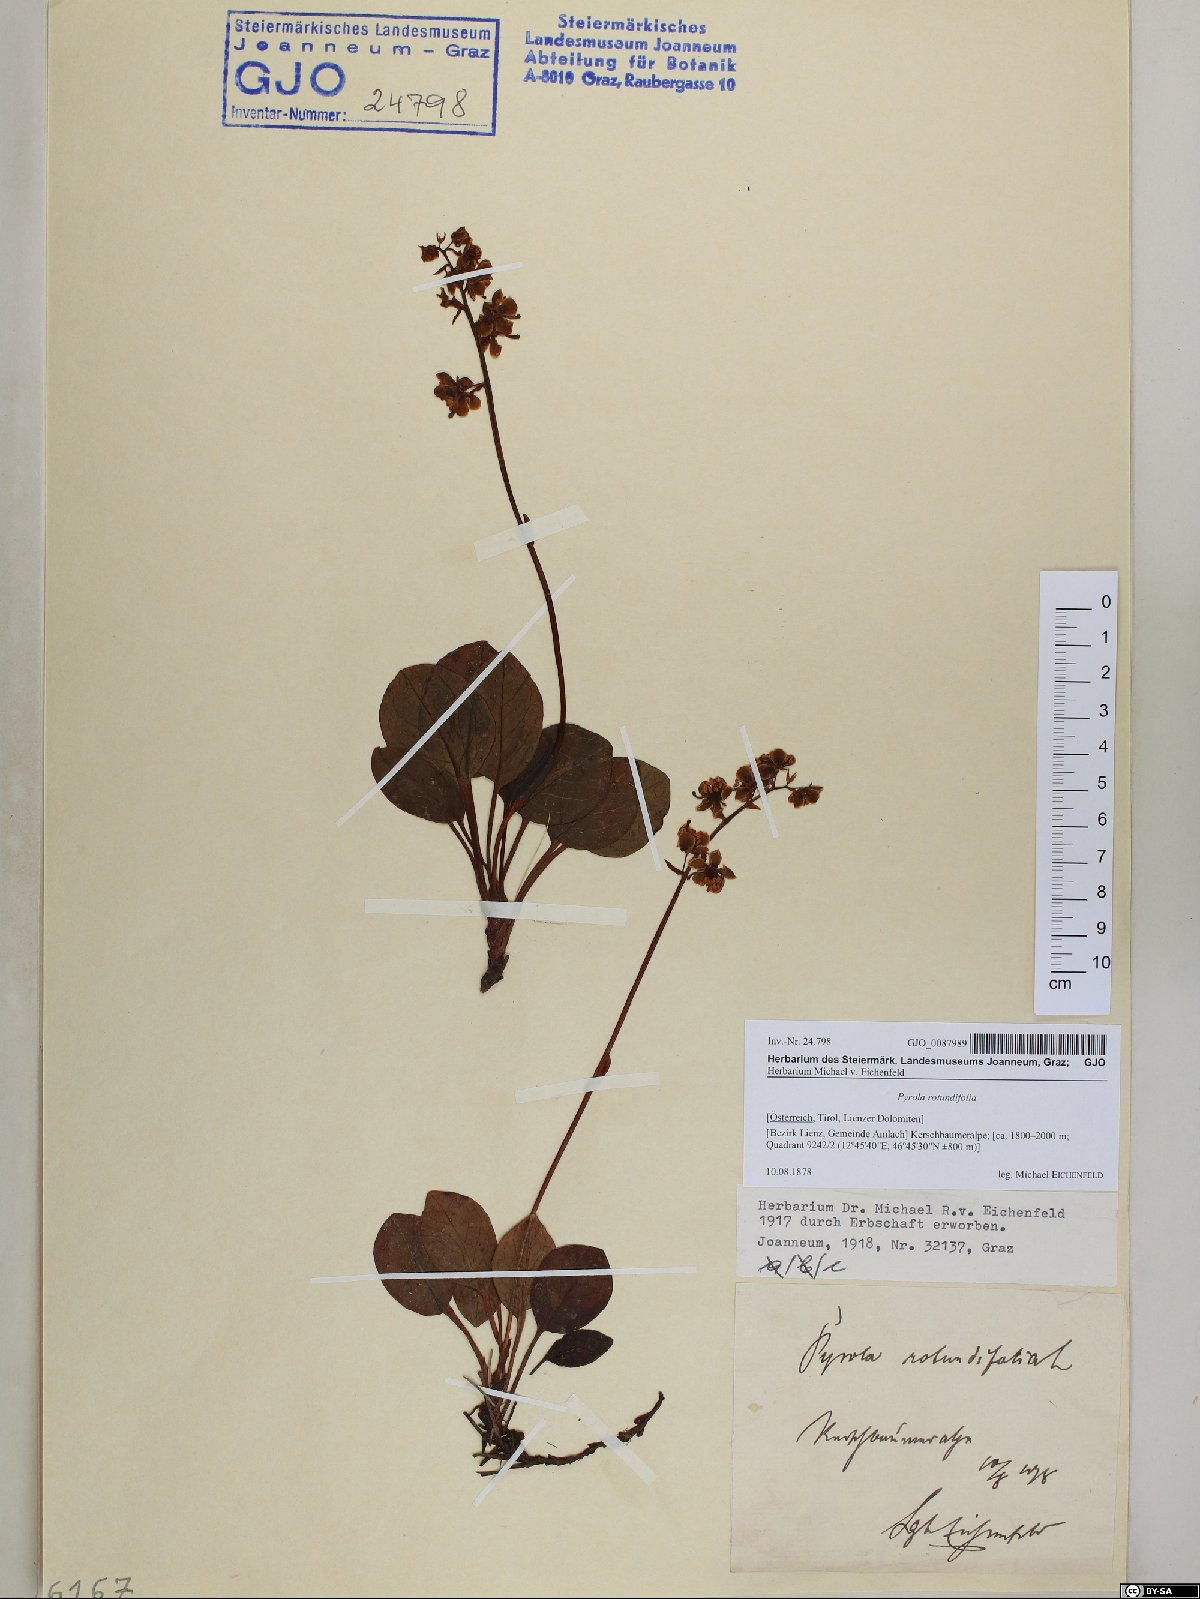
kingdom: Plantae
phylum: Tracheophyta
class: Magnoliopsida
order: Ericales
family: Ericaceae
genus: Pyrola
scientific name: Pyrola rotundifolia
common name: Round-leaved wintergreen
